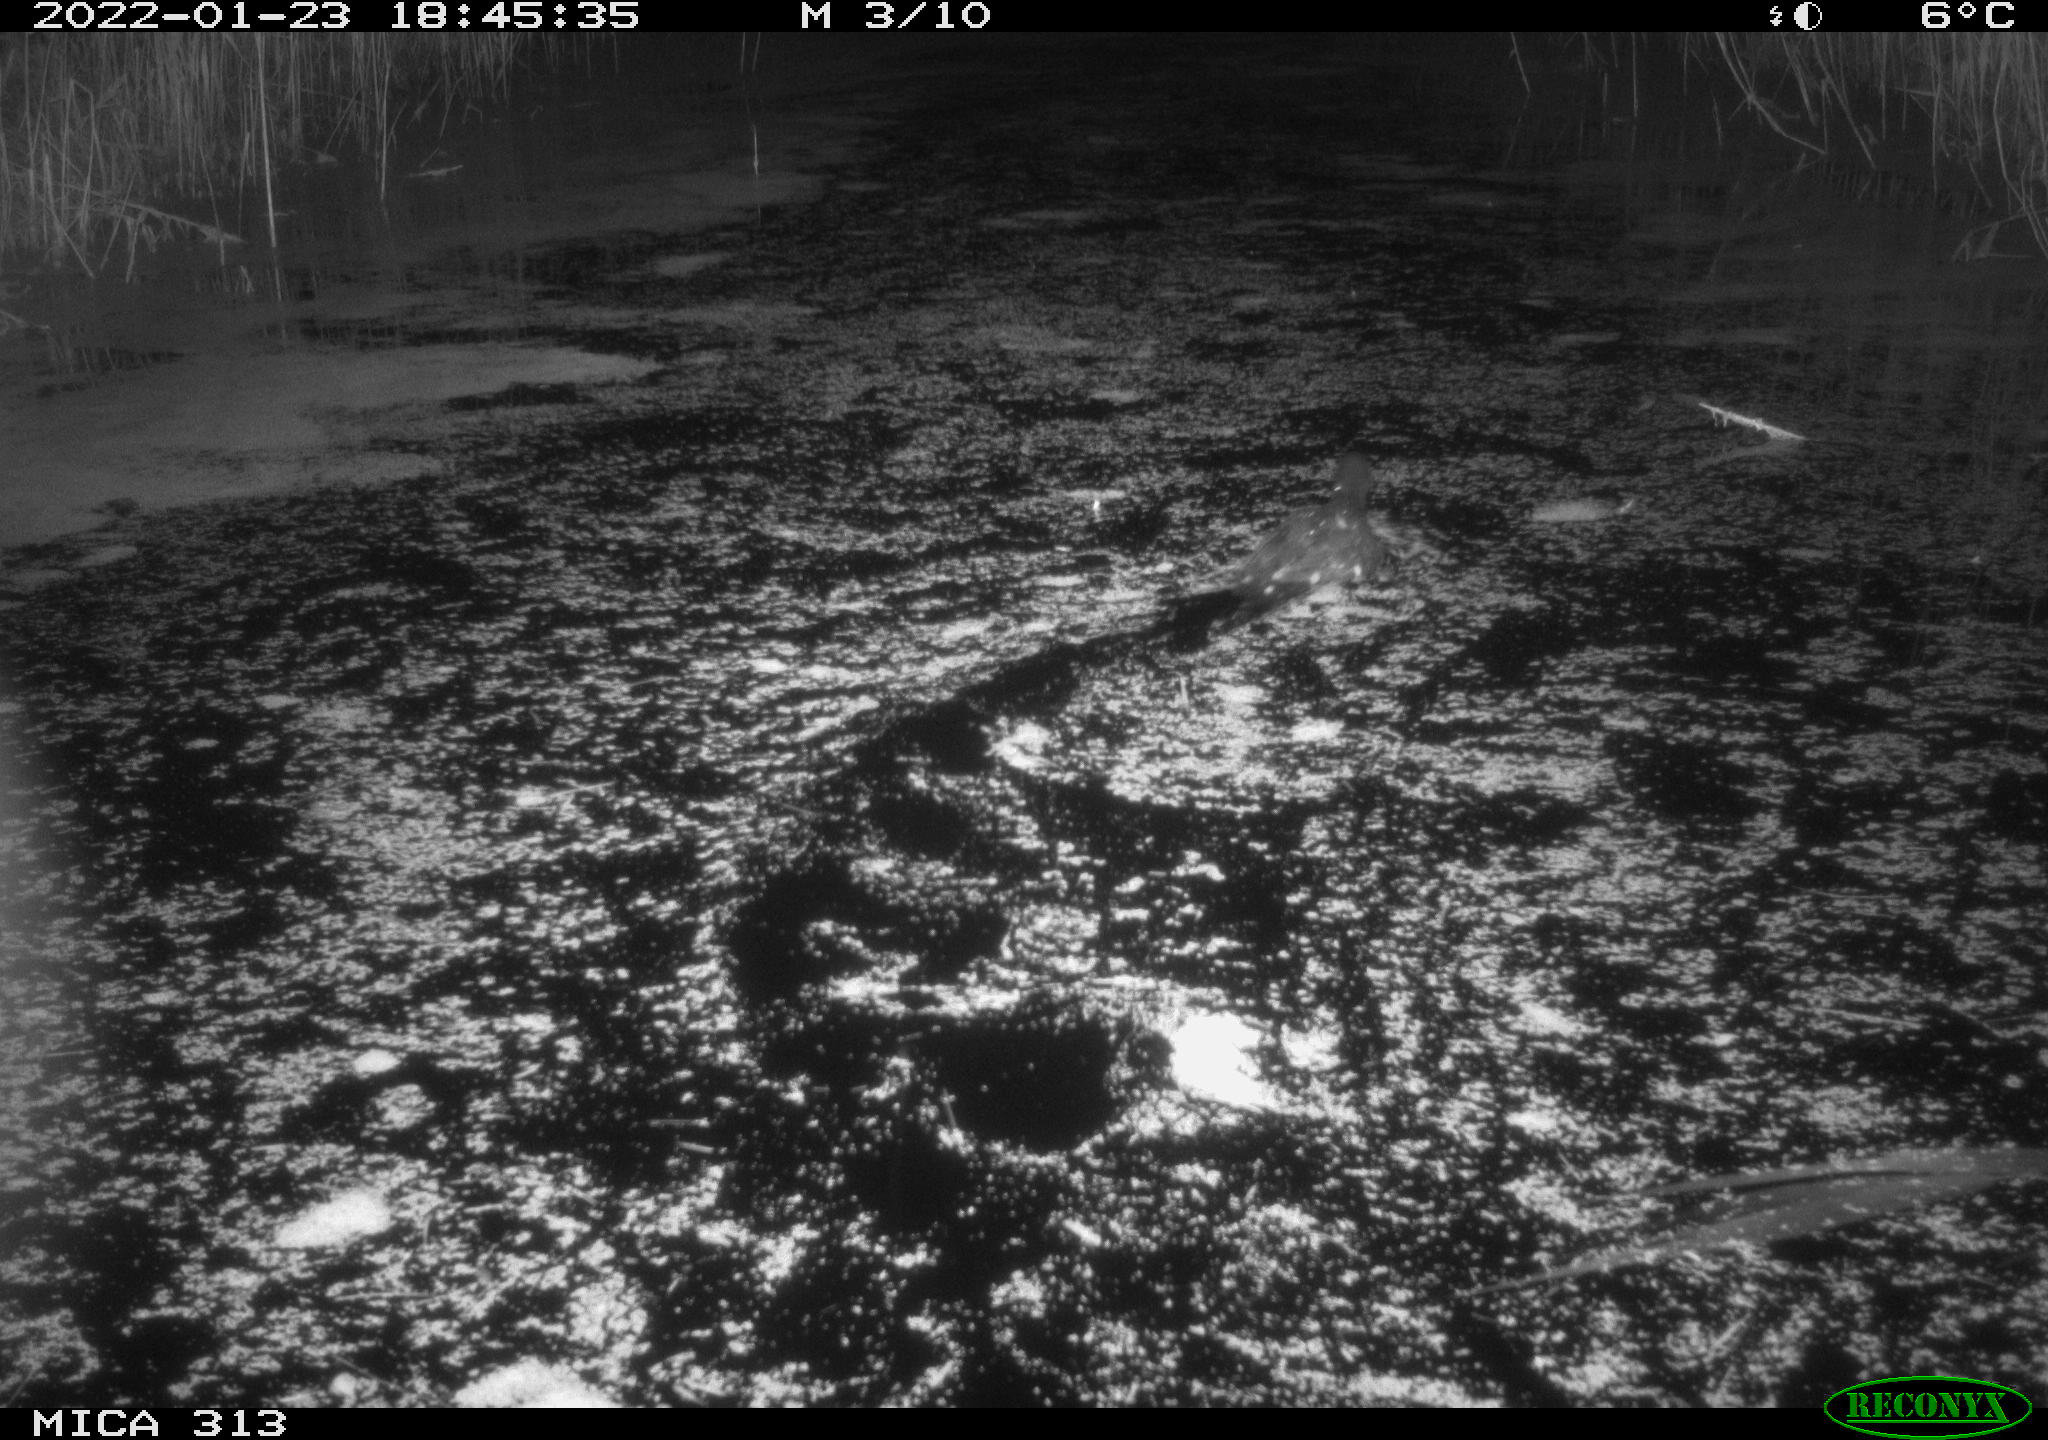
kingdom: Animalia
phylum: Chordata
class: Aves
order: Gruiformes
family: Rallidae
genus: Gallinula
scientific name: Gallinula chloropus
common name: Common moorhen
